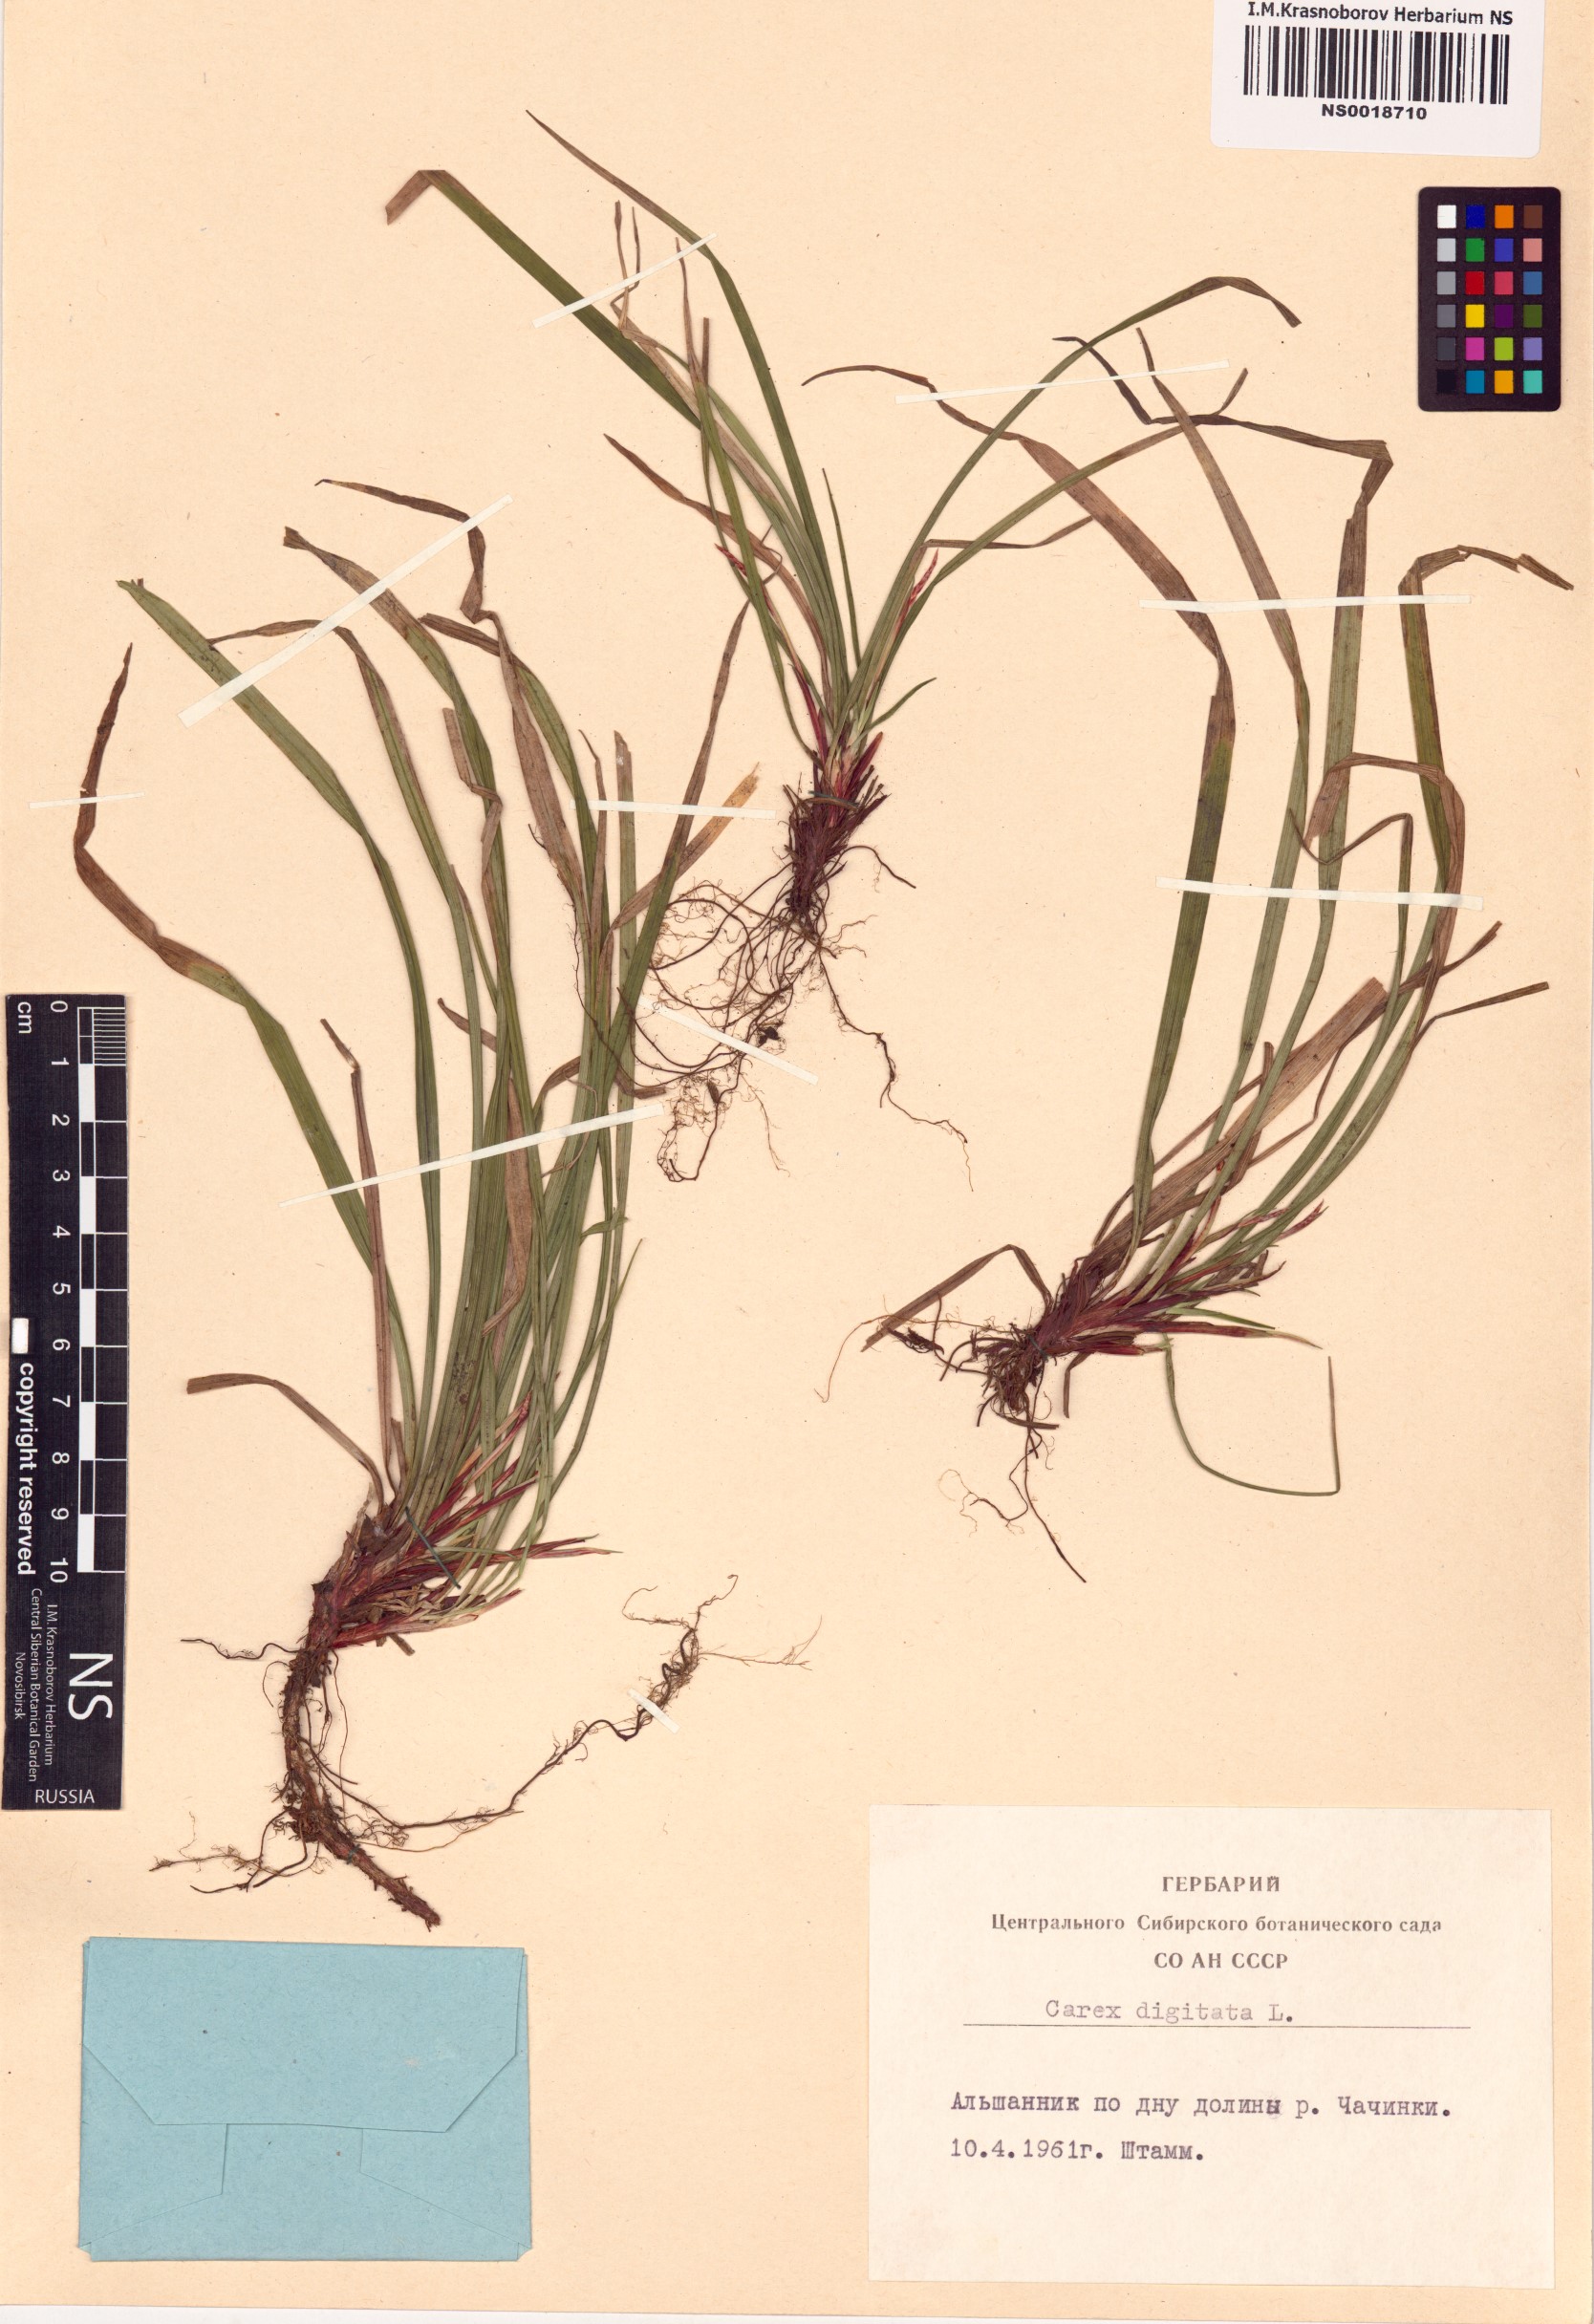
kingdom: Plantae
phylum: Tracheophyta
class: Liliopsida
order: Poales
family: Cyperaceae
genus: Carex
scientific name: Carex digitata
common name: Fingered sedge
